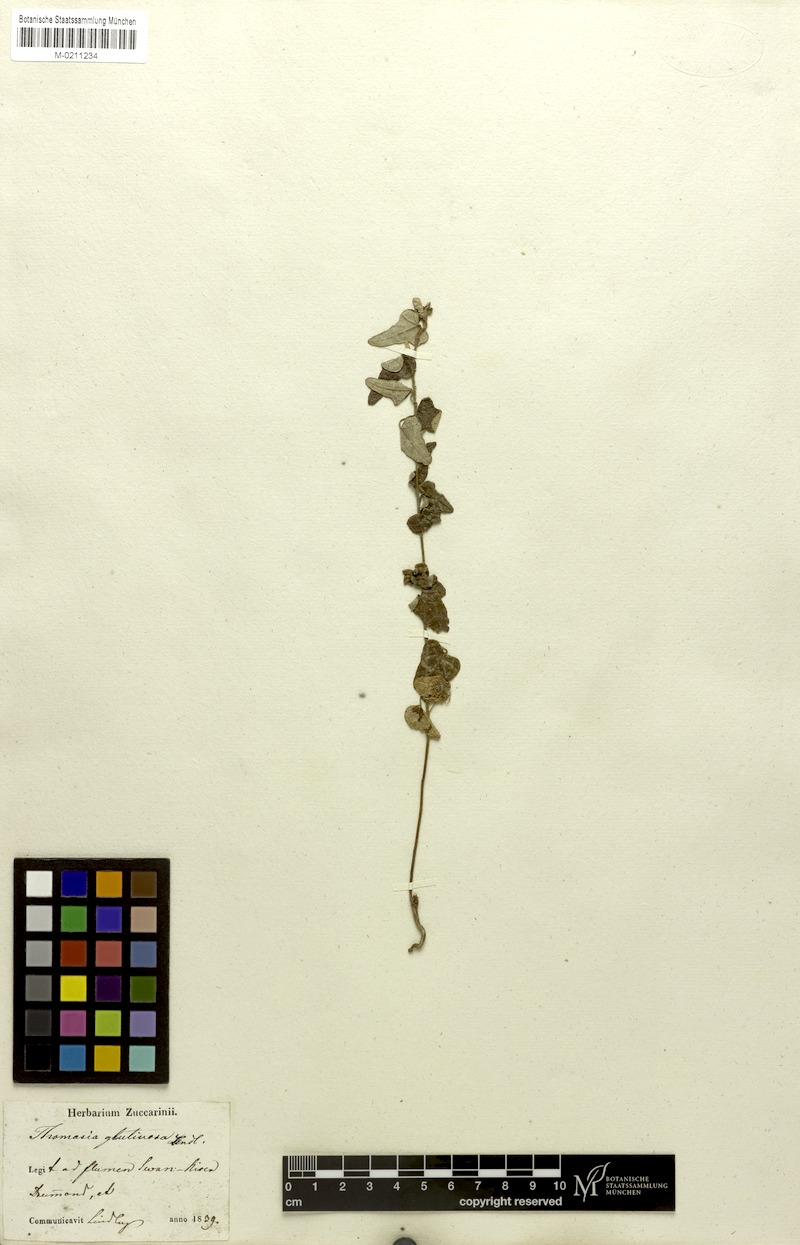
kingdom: Plantae
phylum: Tracheophyta
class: Magnoliopsida
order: Malvales
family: Malvaceae
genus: Lasiopetalum
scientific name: Lasiopetalum glutinosum
